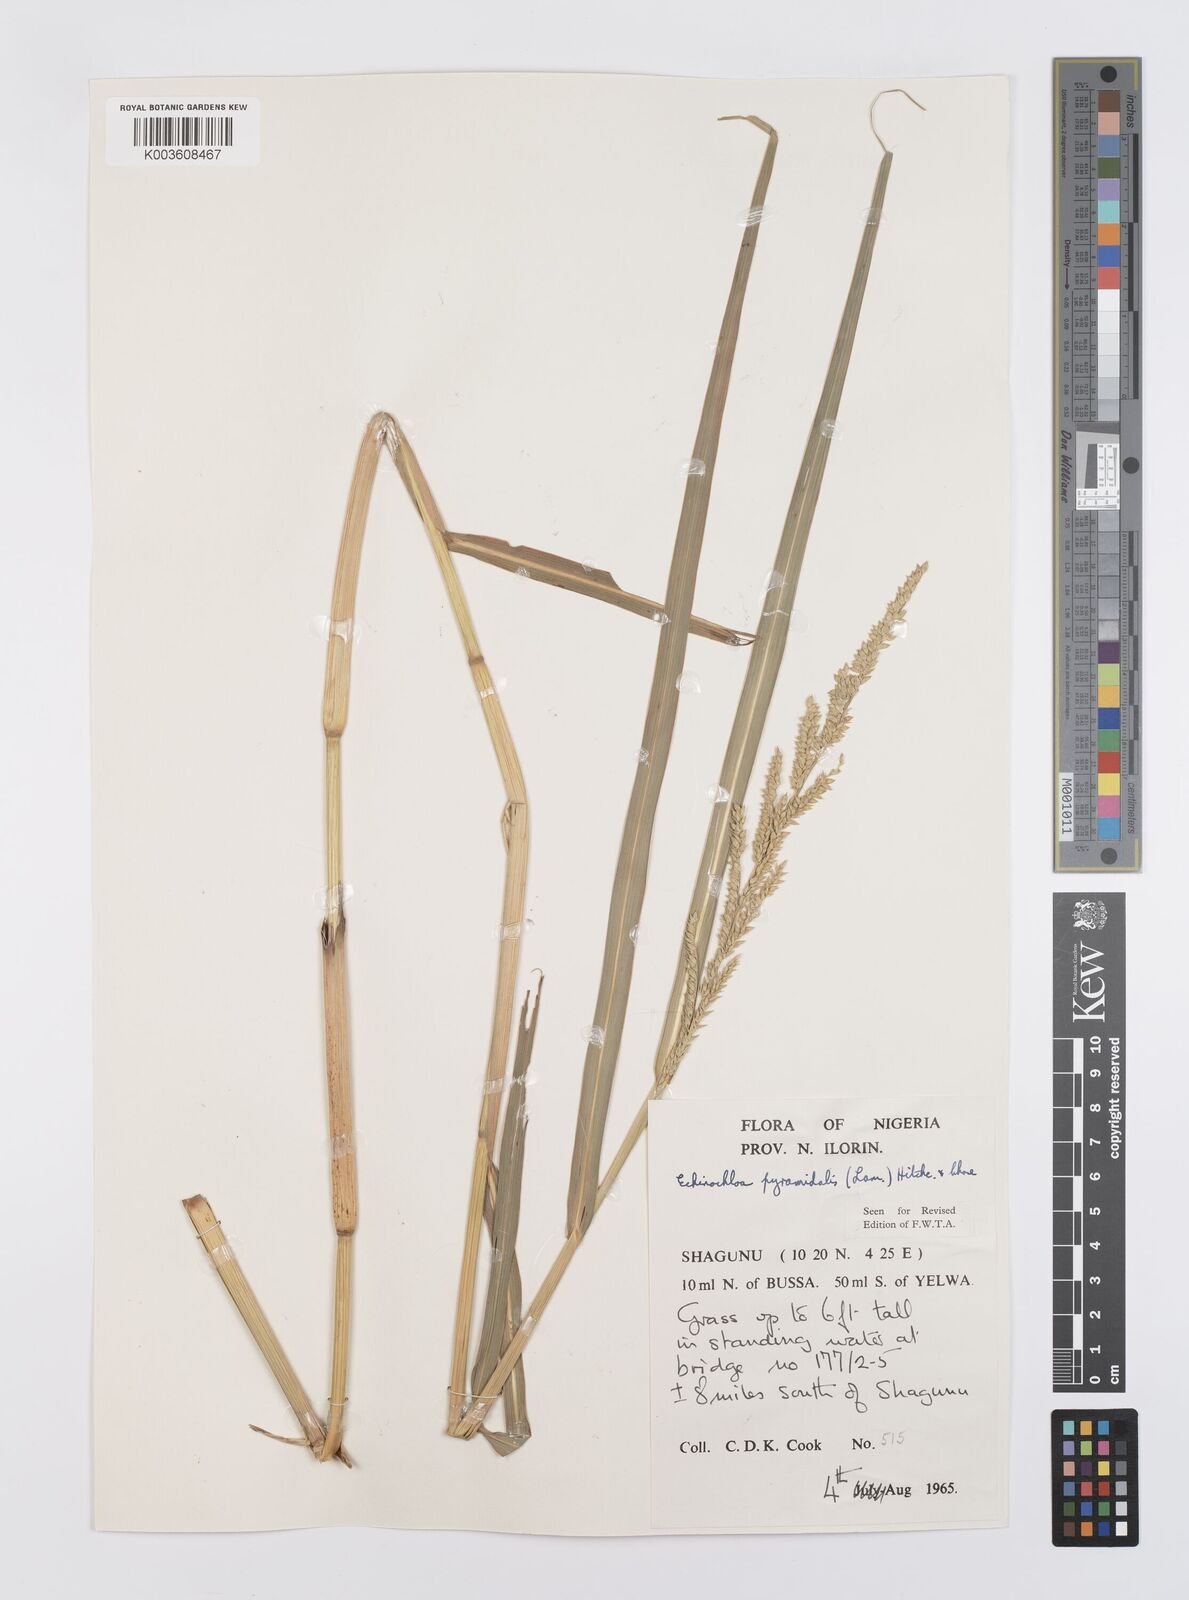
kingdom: Plantae
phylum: Tracheophyta
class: Liliopsida
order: Poales
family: Poaceae
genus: Echinochloa
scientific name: Echinochloa pyramidalis
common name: Antelope grass
